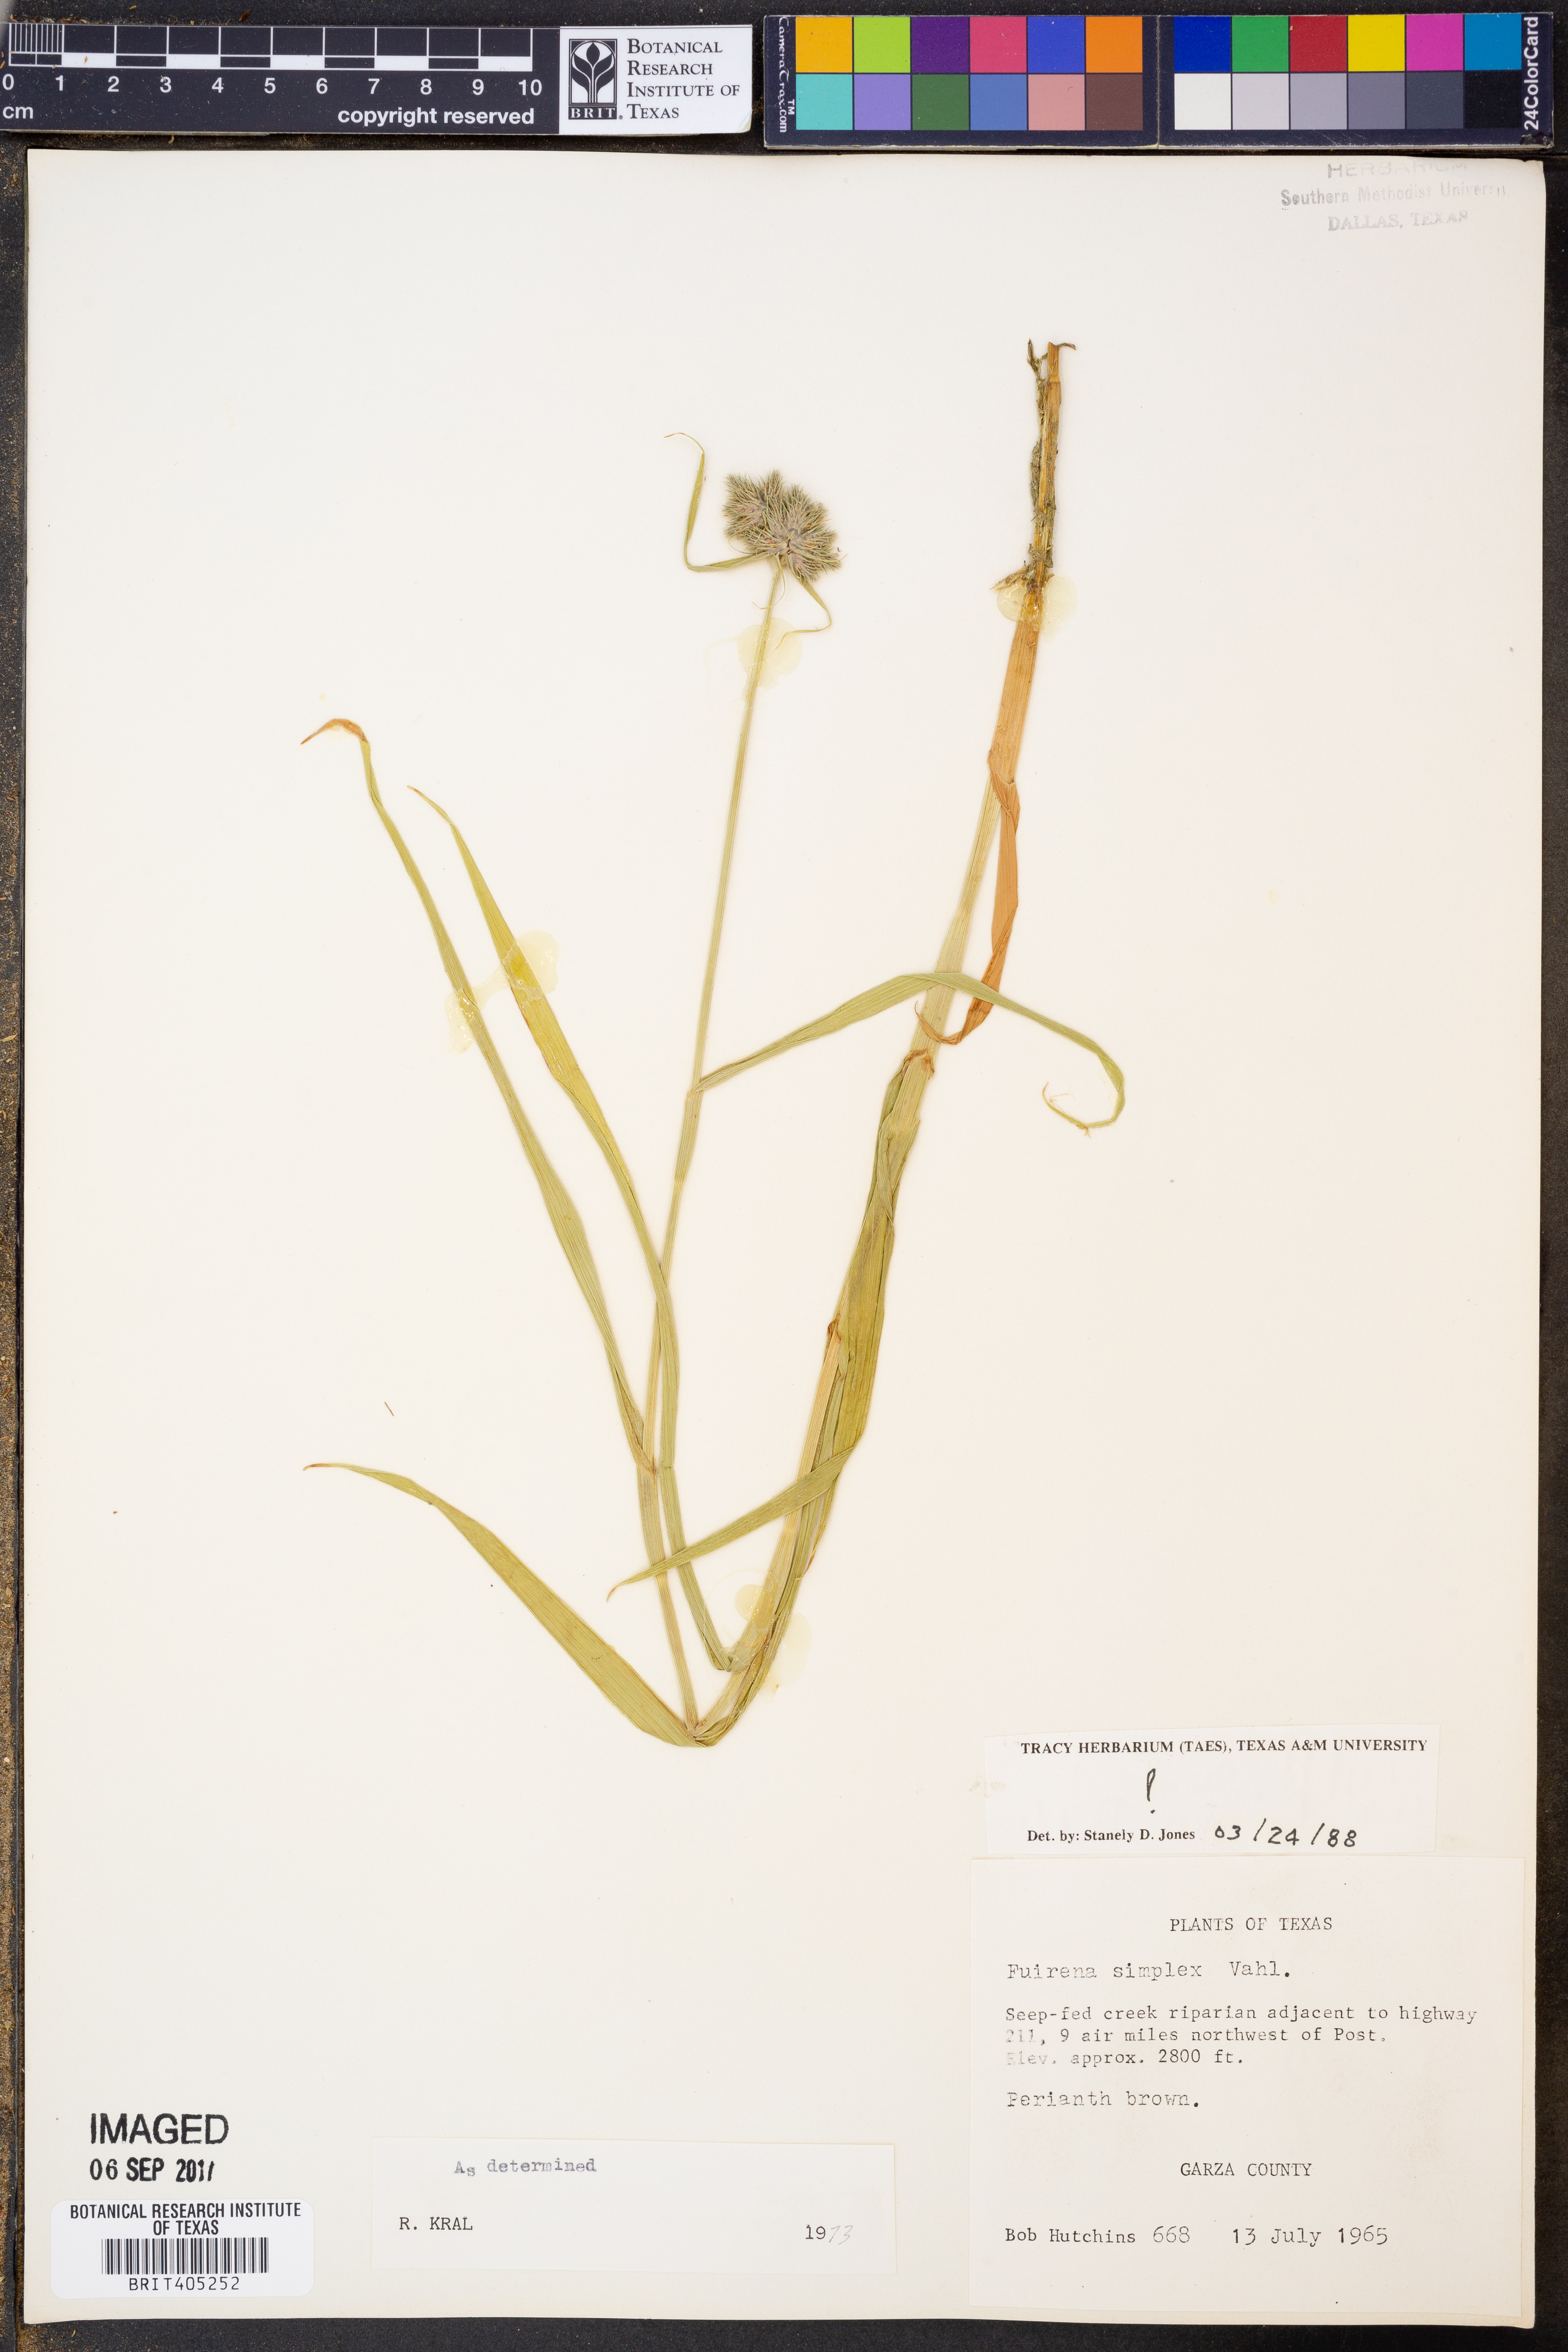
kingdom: Plantae
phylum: Tracheophyta
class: Liliopsida
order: Poales
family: Cyperaceae
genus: Fuirena
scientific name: Fuirena simplex
